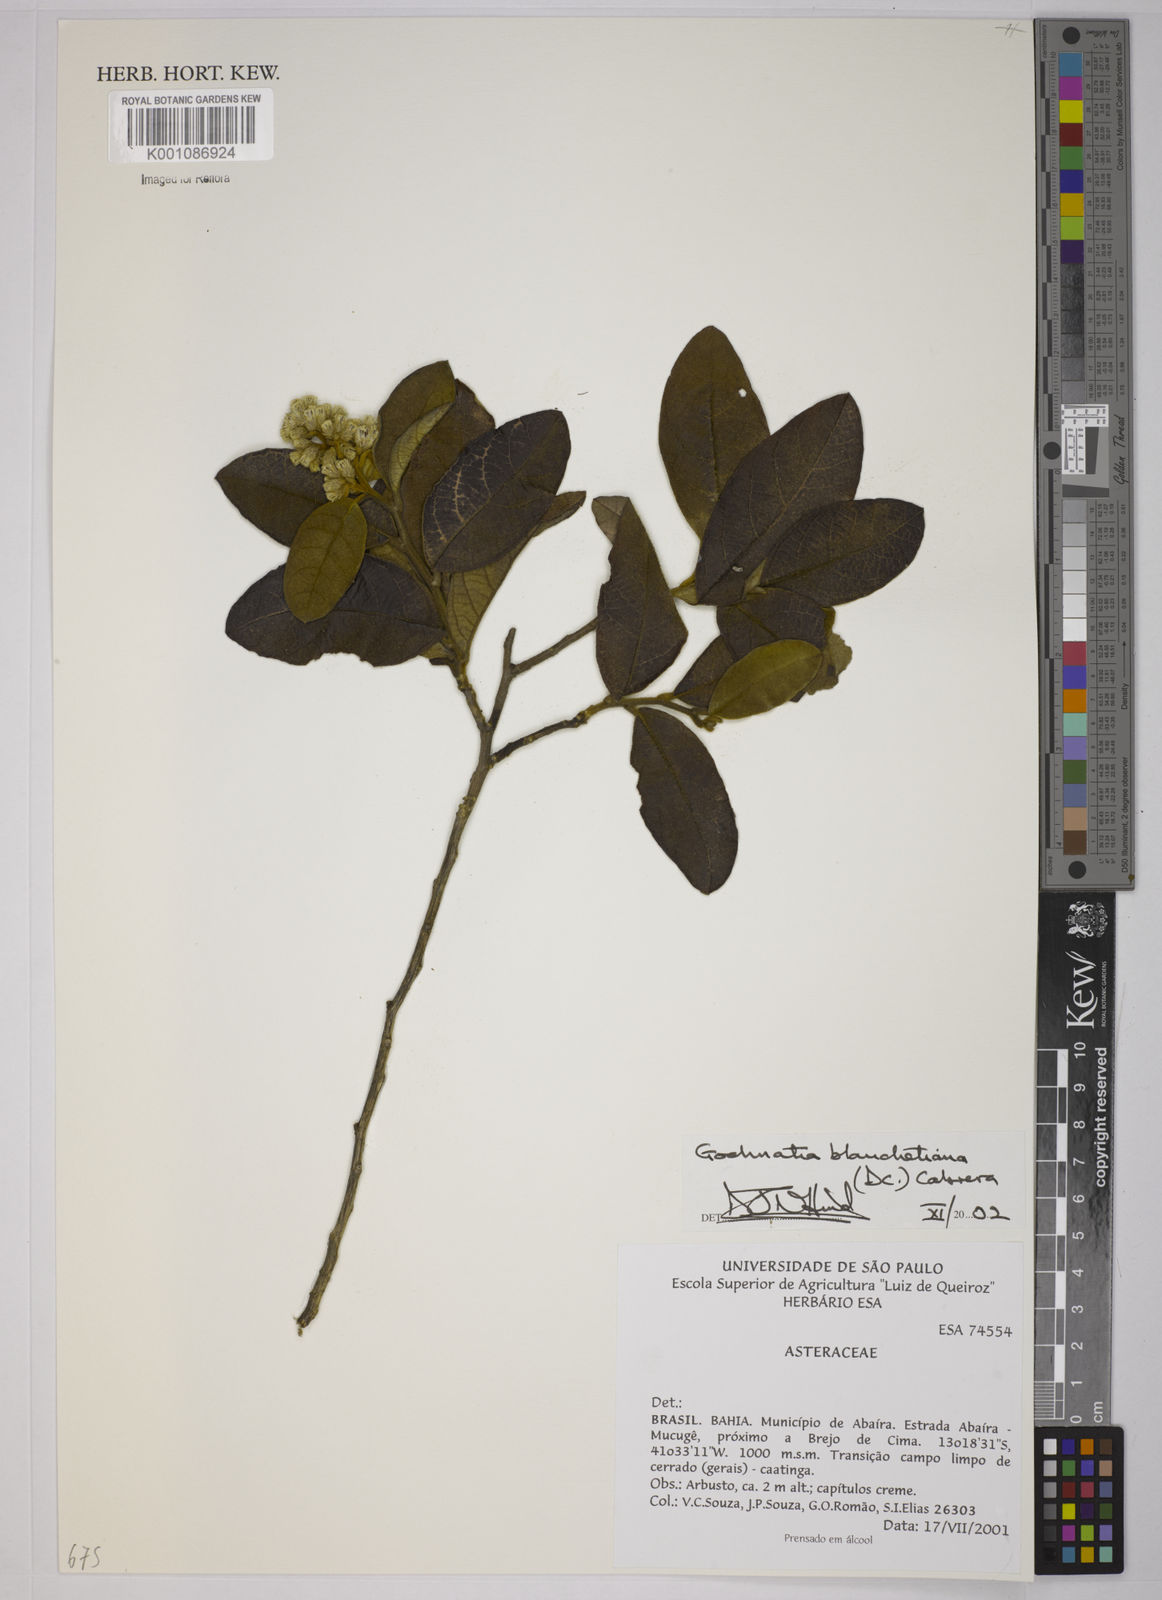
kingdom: Plantae
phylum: Tracheophyta
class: Magnoliopsida
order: Asterales
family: Asteraceae
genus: Moquiniastrum
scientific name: Moquiniastrum blanchetianum
